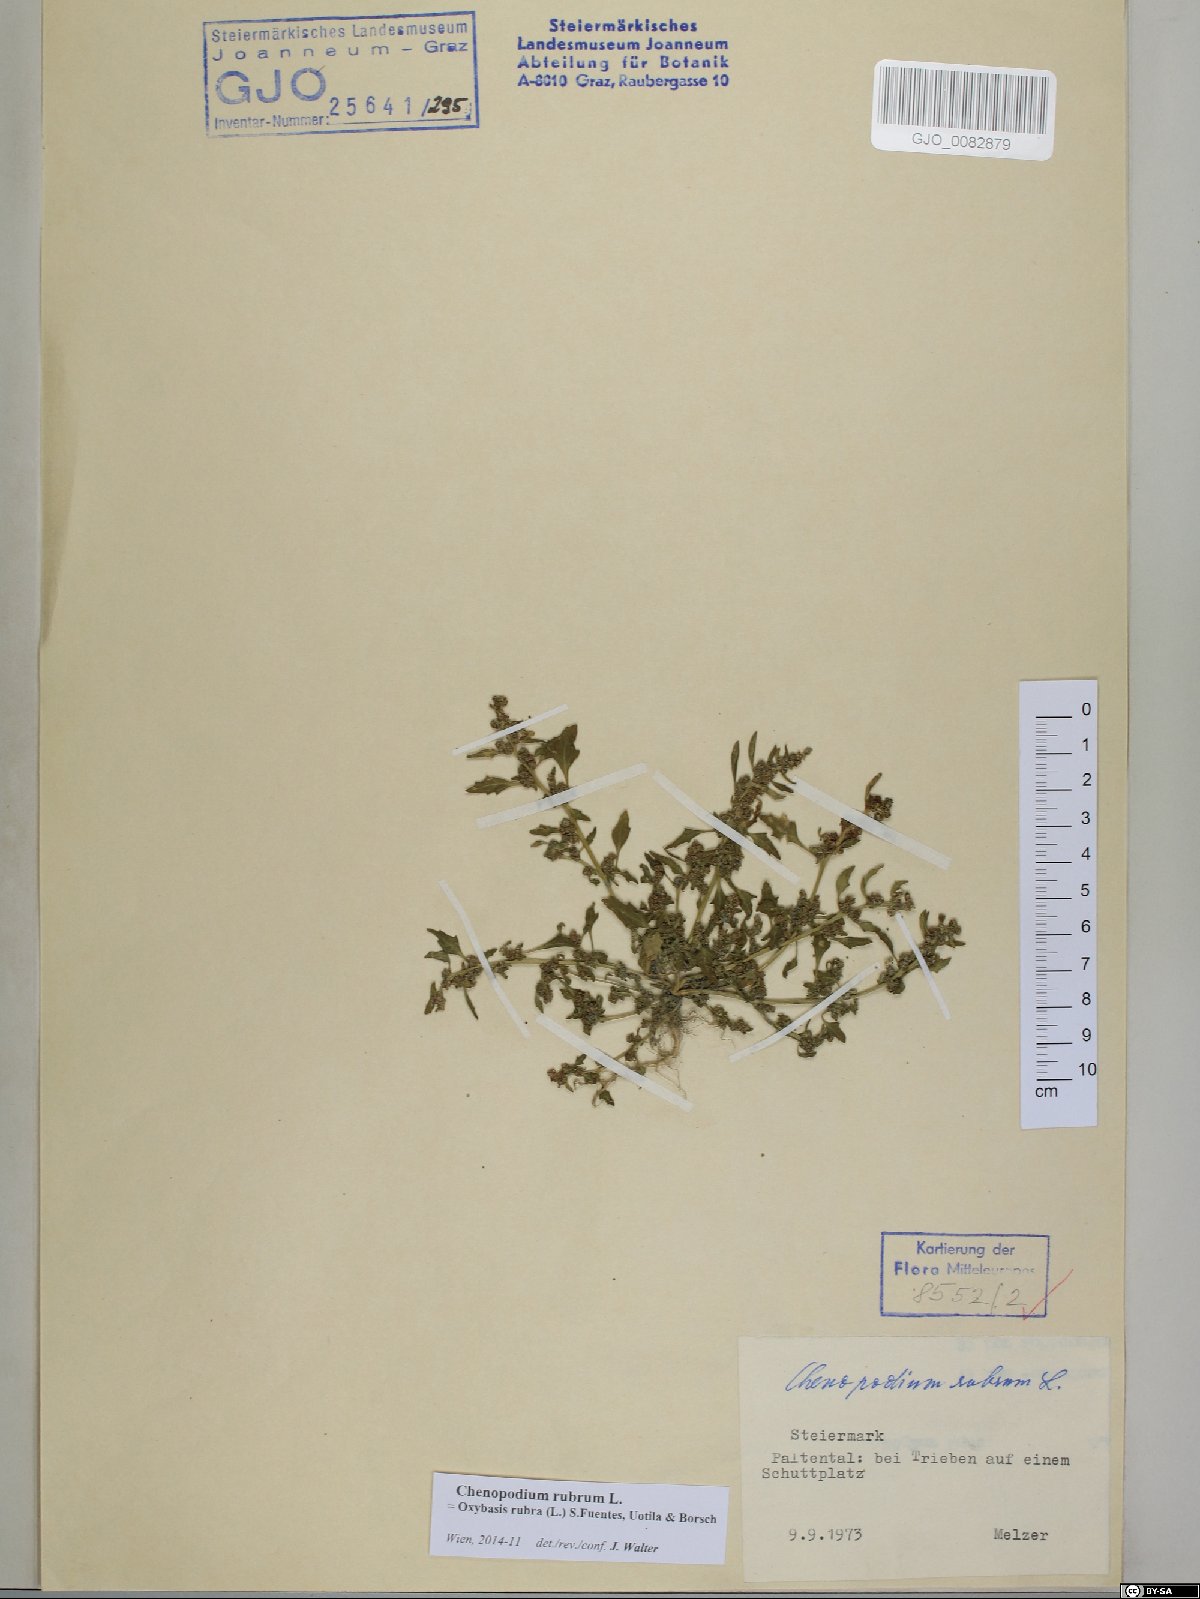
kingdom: Plantae
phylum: Tracheophyta
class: Magnoliopsida
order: Caryophyllales
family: Amaranthaceae
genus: Oxybasis
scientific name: Oxybasis rubra
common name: Red goosefoot
